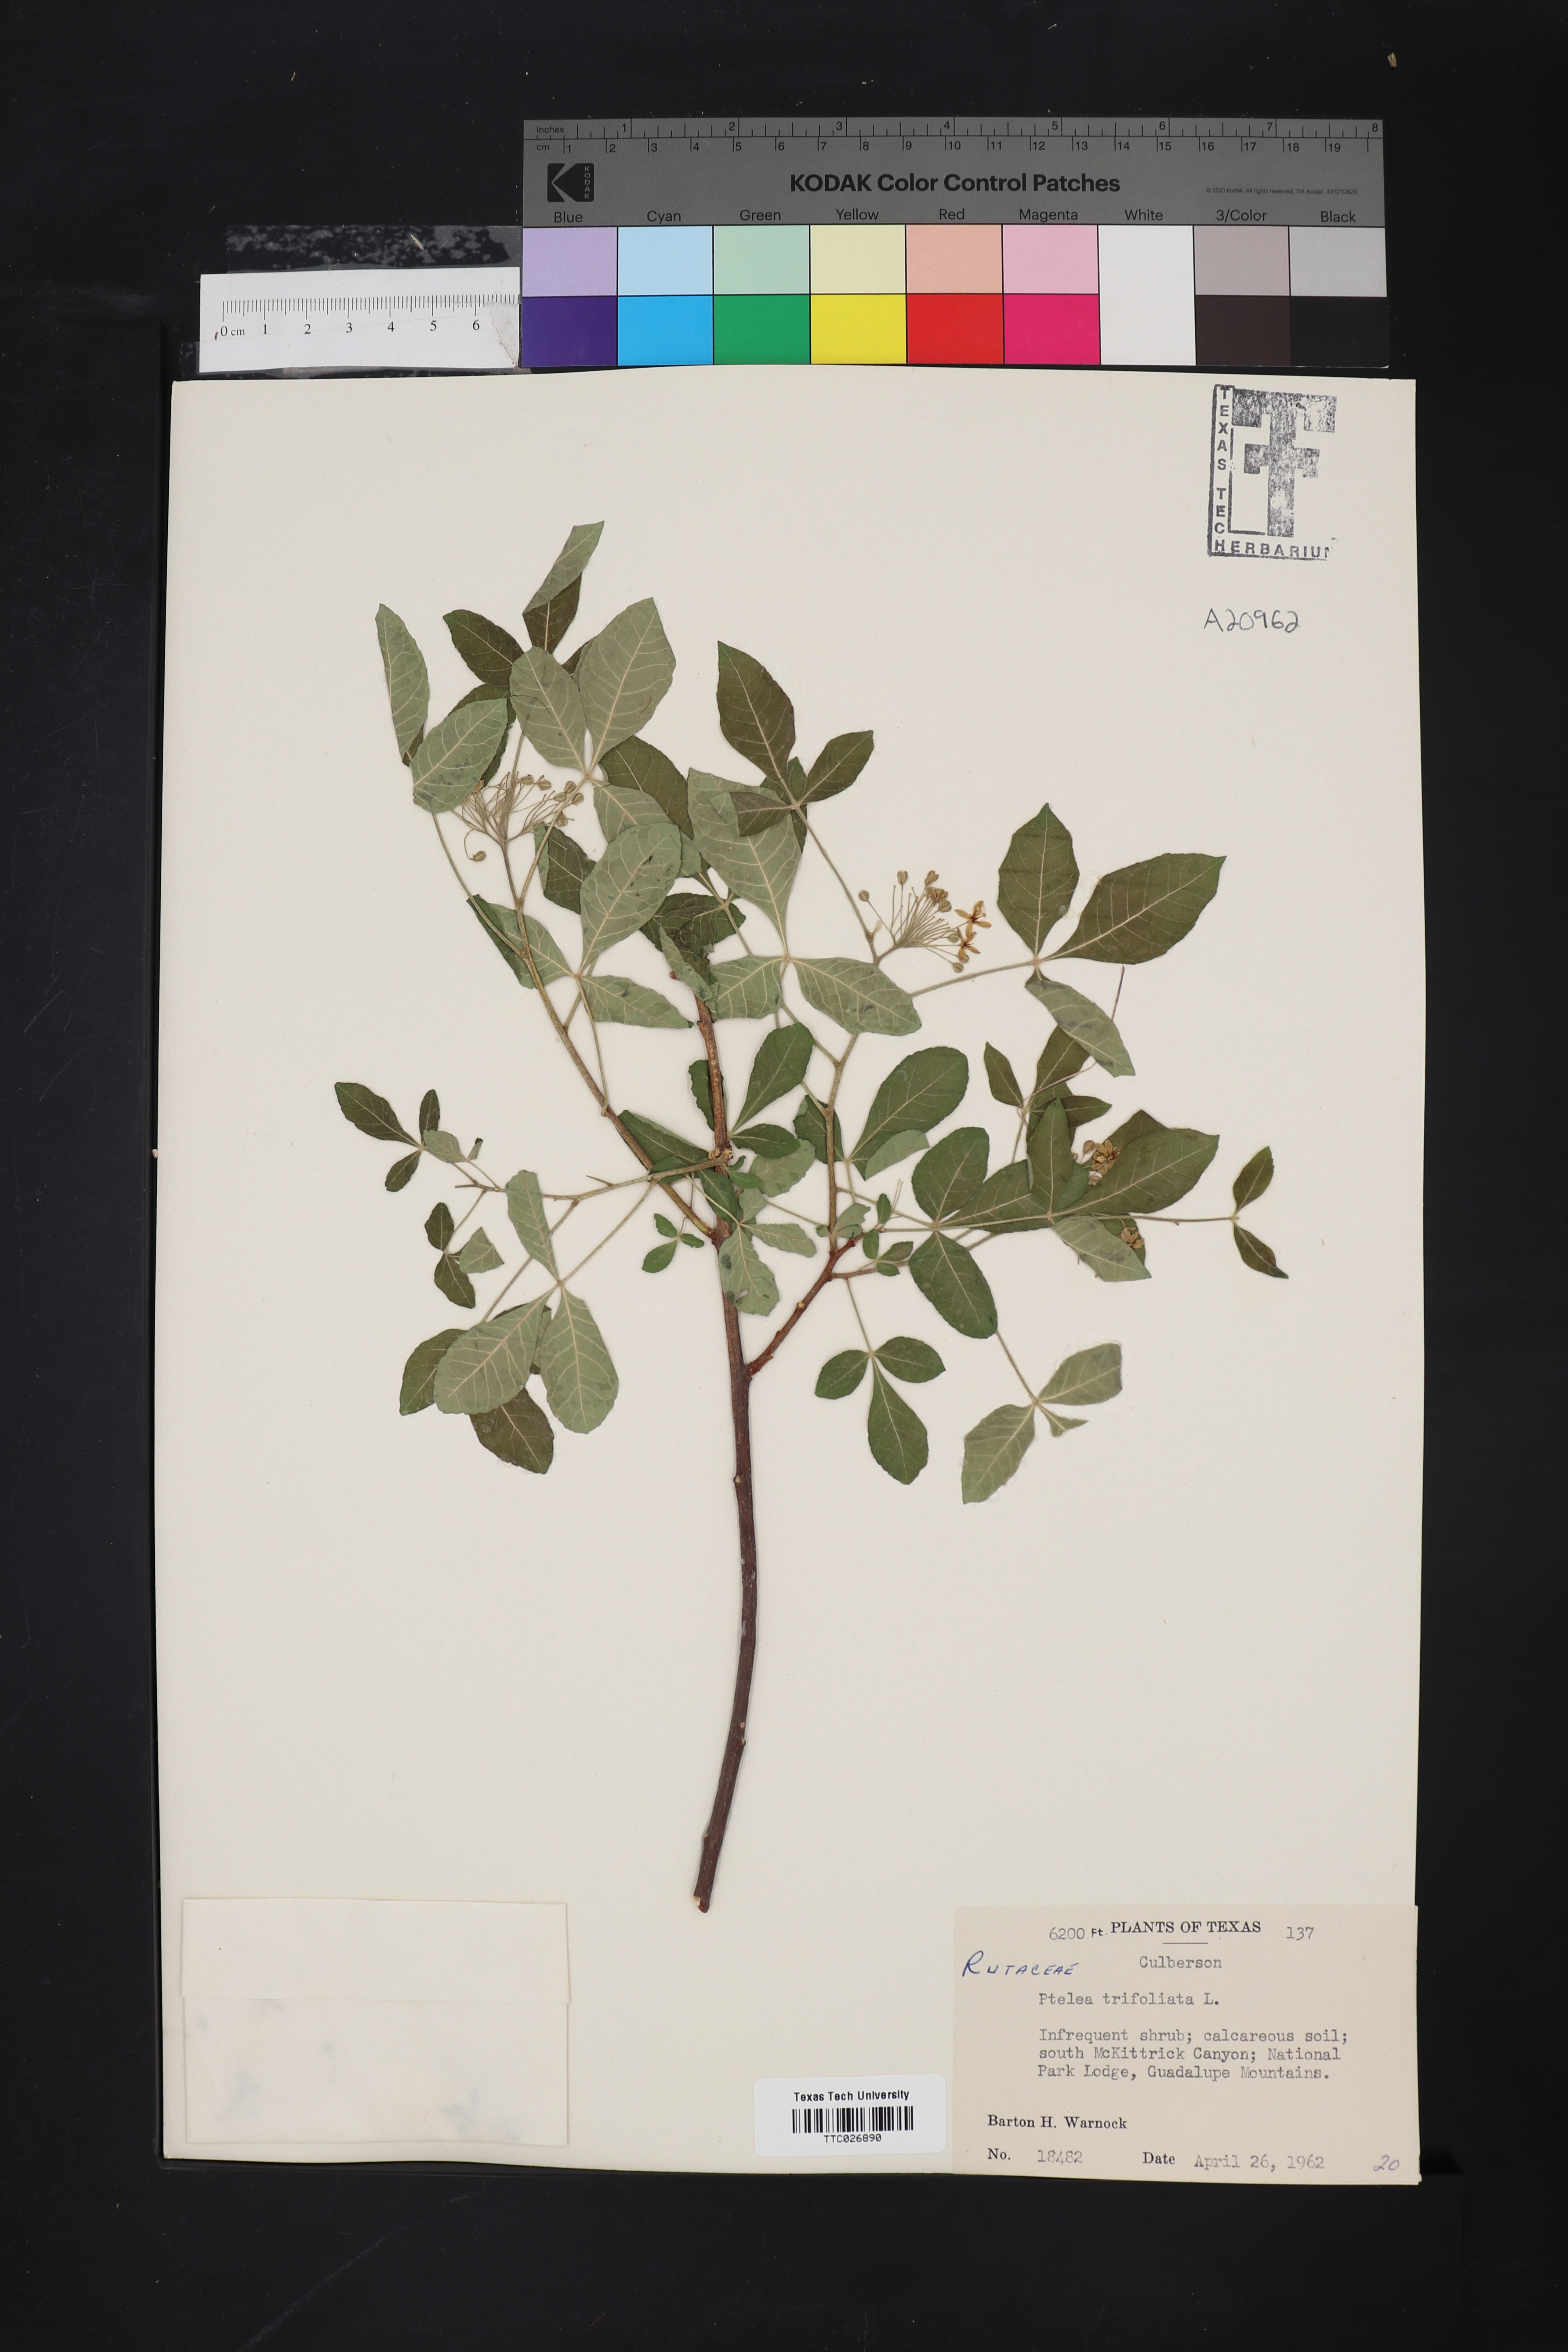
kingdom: Plantae
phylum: Tracheophyta
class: Magnoliopsida
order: Sapindales
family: Rutaceae
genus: Ptelea
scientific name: Ptelea trifoliata
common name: Common hop-tree
